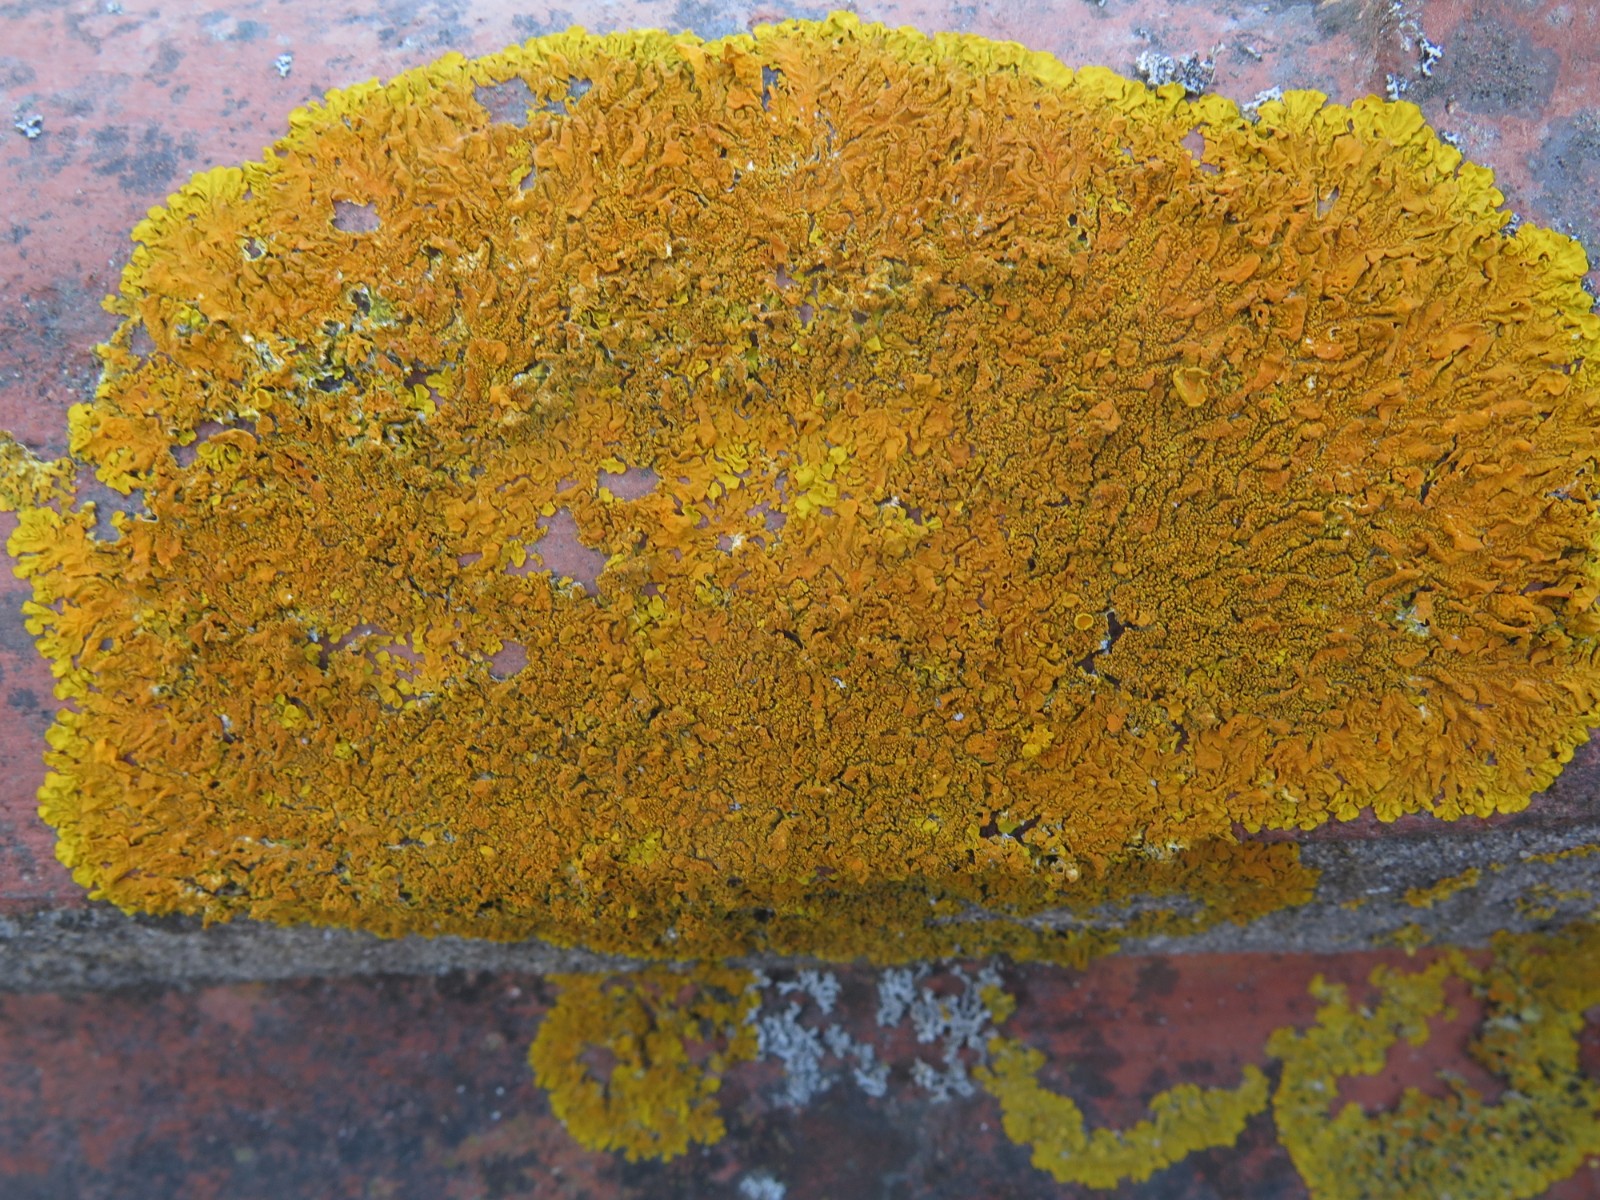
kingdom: Fungi
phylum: Ascomycota
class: Lecanoromycetes
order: Teloschistales
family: Teloschistaceae
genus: Xanthoria
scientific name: Xanthoria calcicola
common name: vortet væggelav
